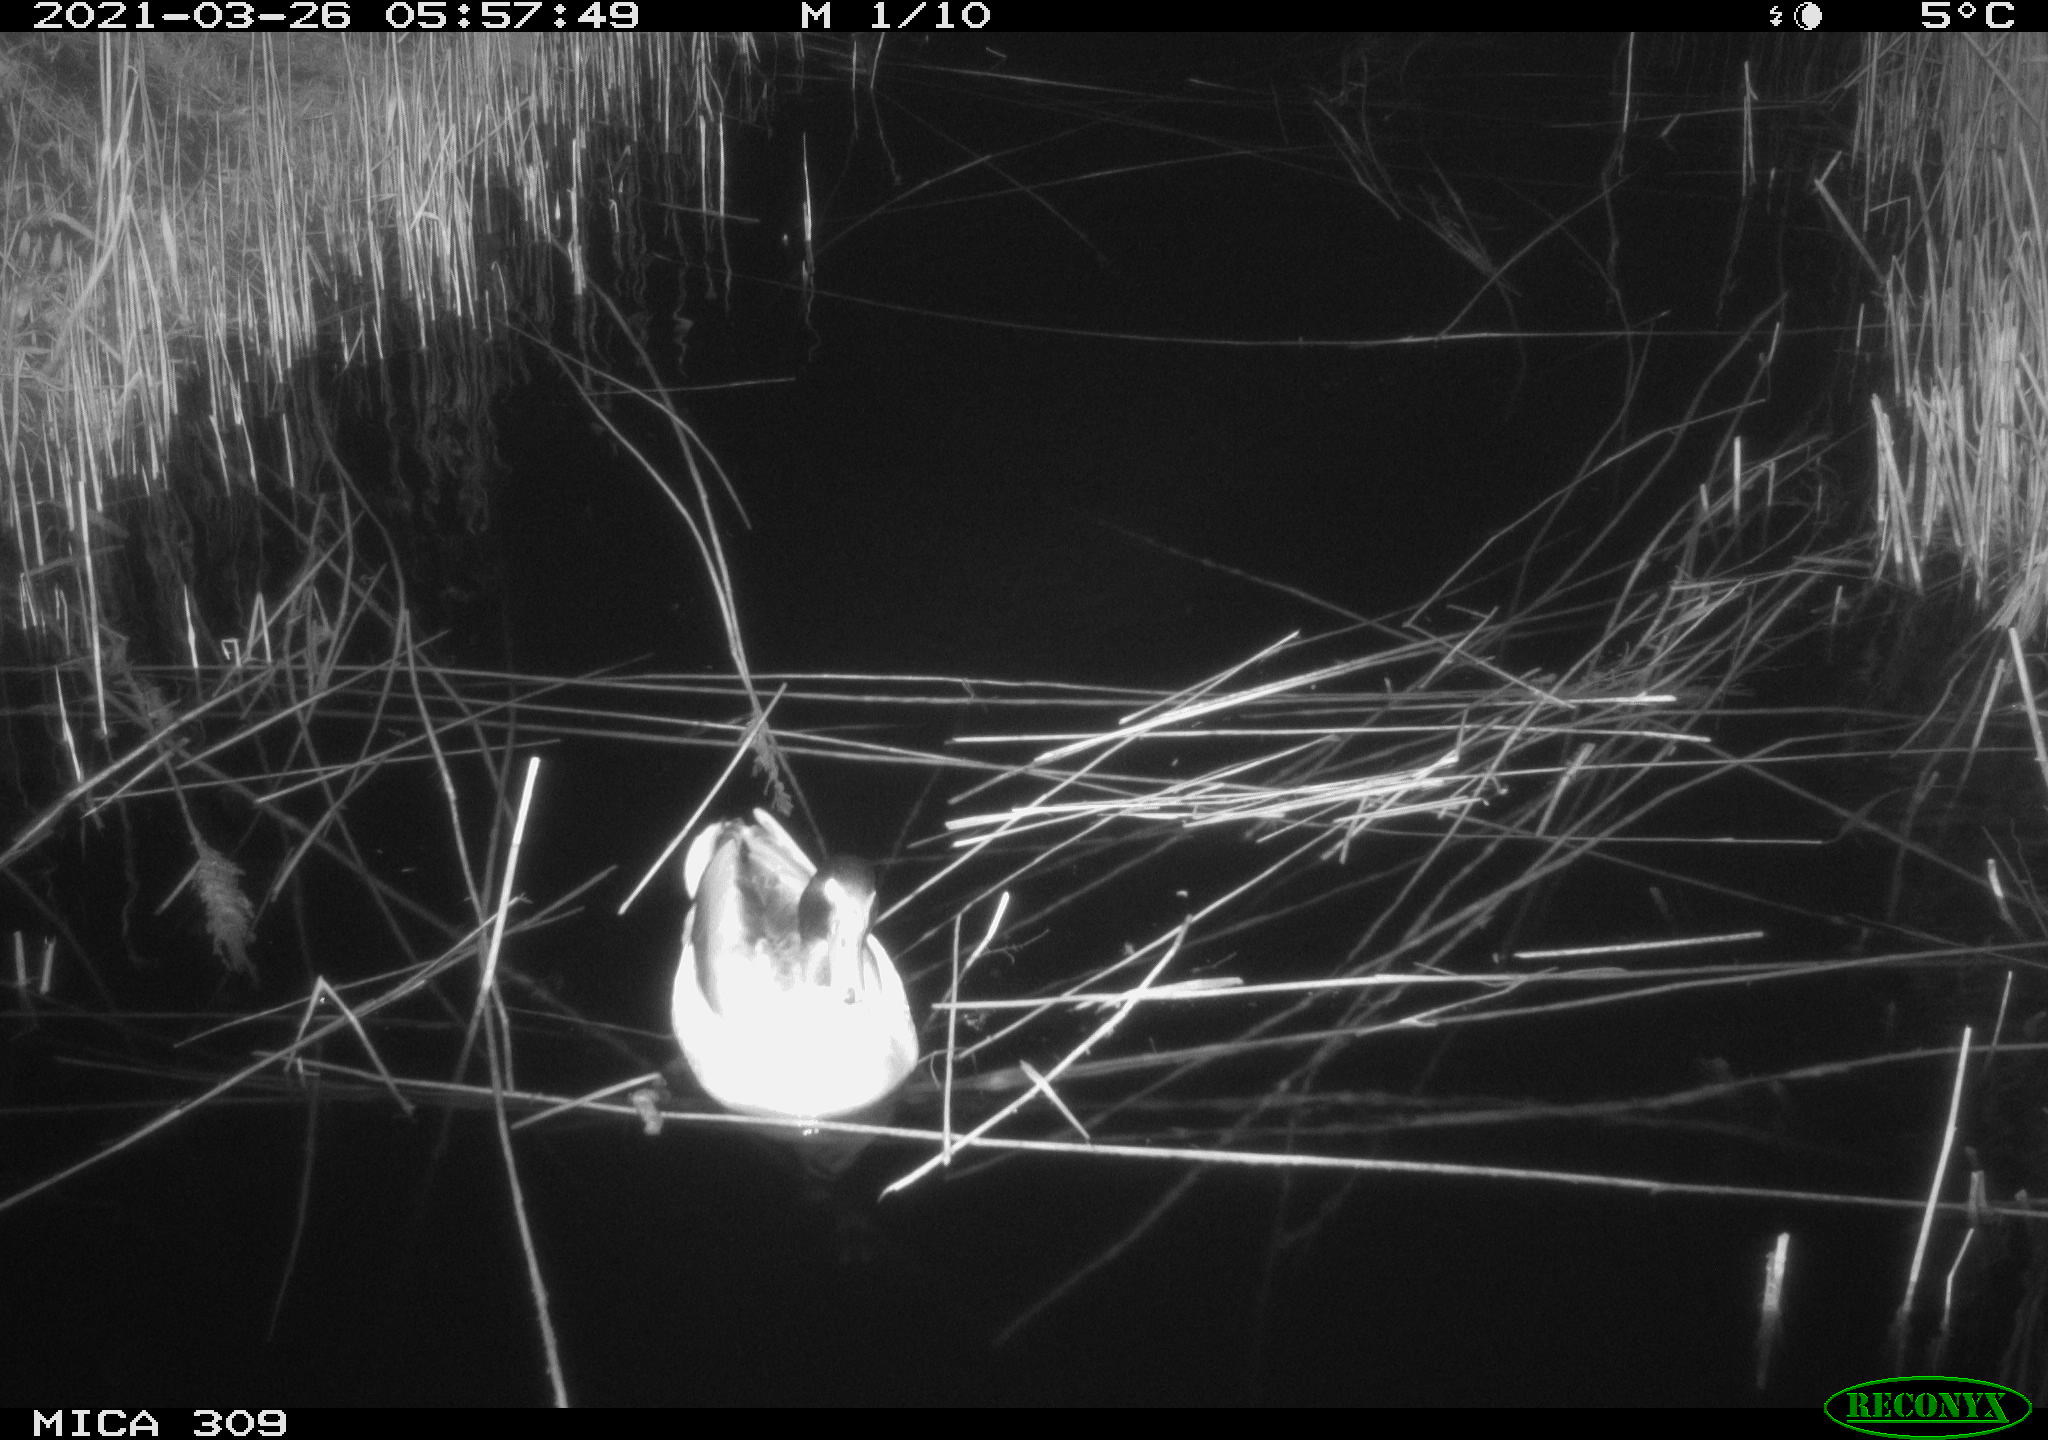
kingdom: Animalia
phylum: Chordata
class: Aves
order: Anseriformes
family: Anatidae
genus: Anas
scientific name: Anas platyrhynchos
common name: Mallard
